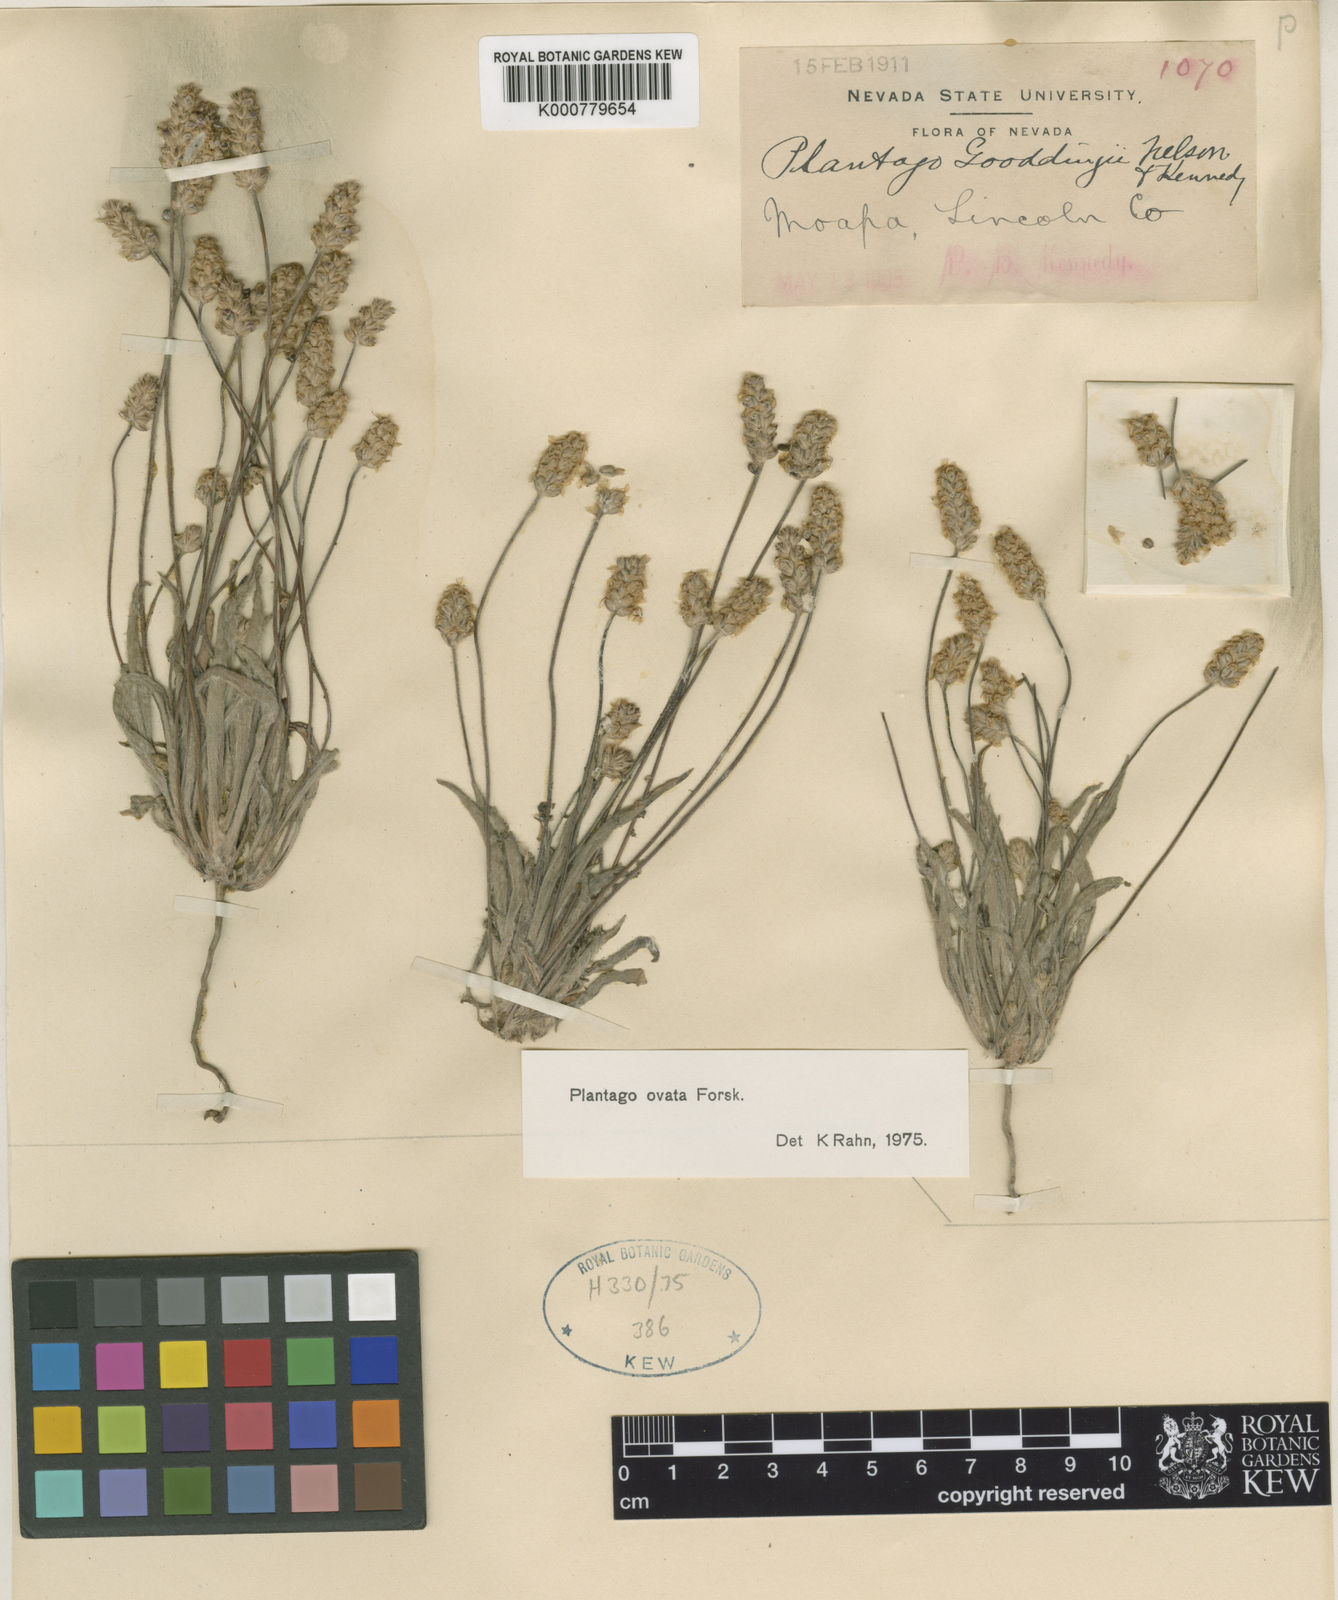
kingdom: Plantae
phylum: Tracheophyta
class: Magnoliopsida
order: Lamiales
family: Plantaginaceae
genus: Plantago
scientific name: Plantago ovata
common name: Blond plantain
